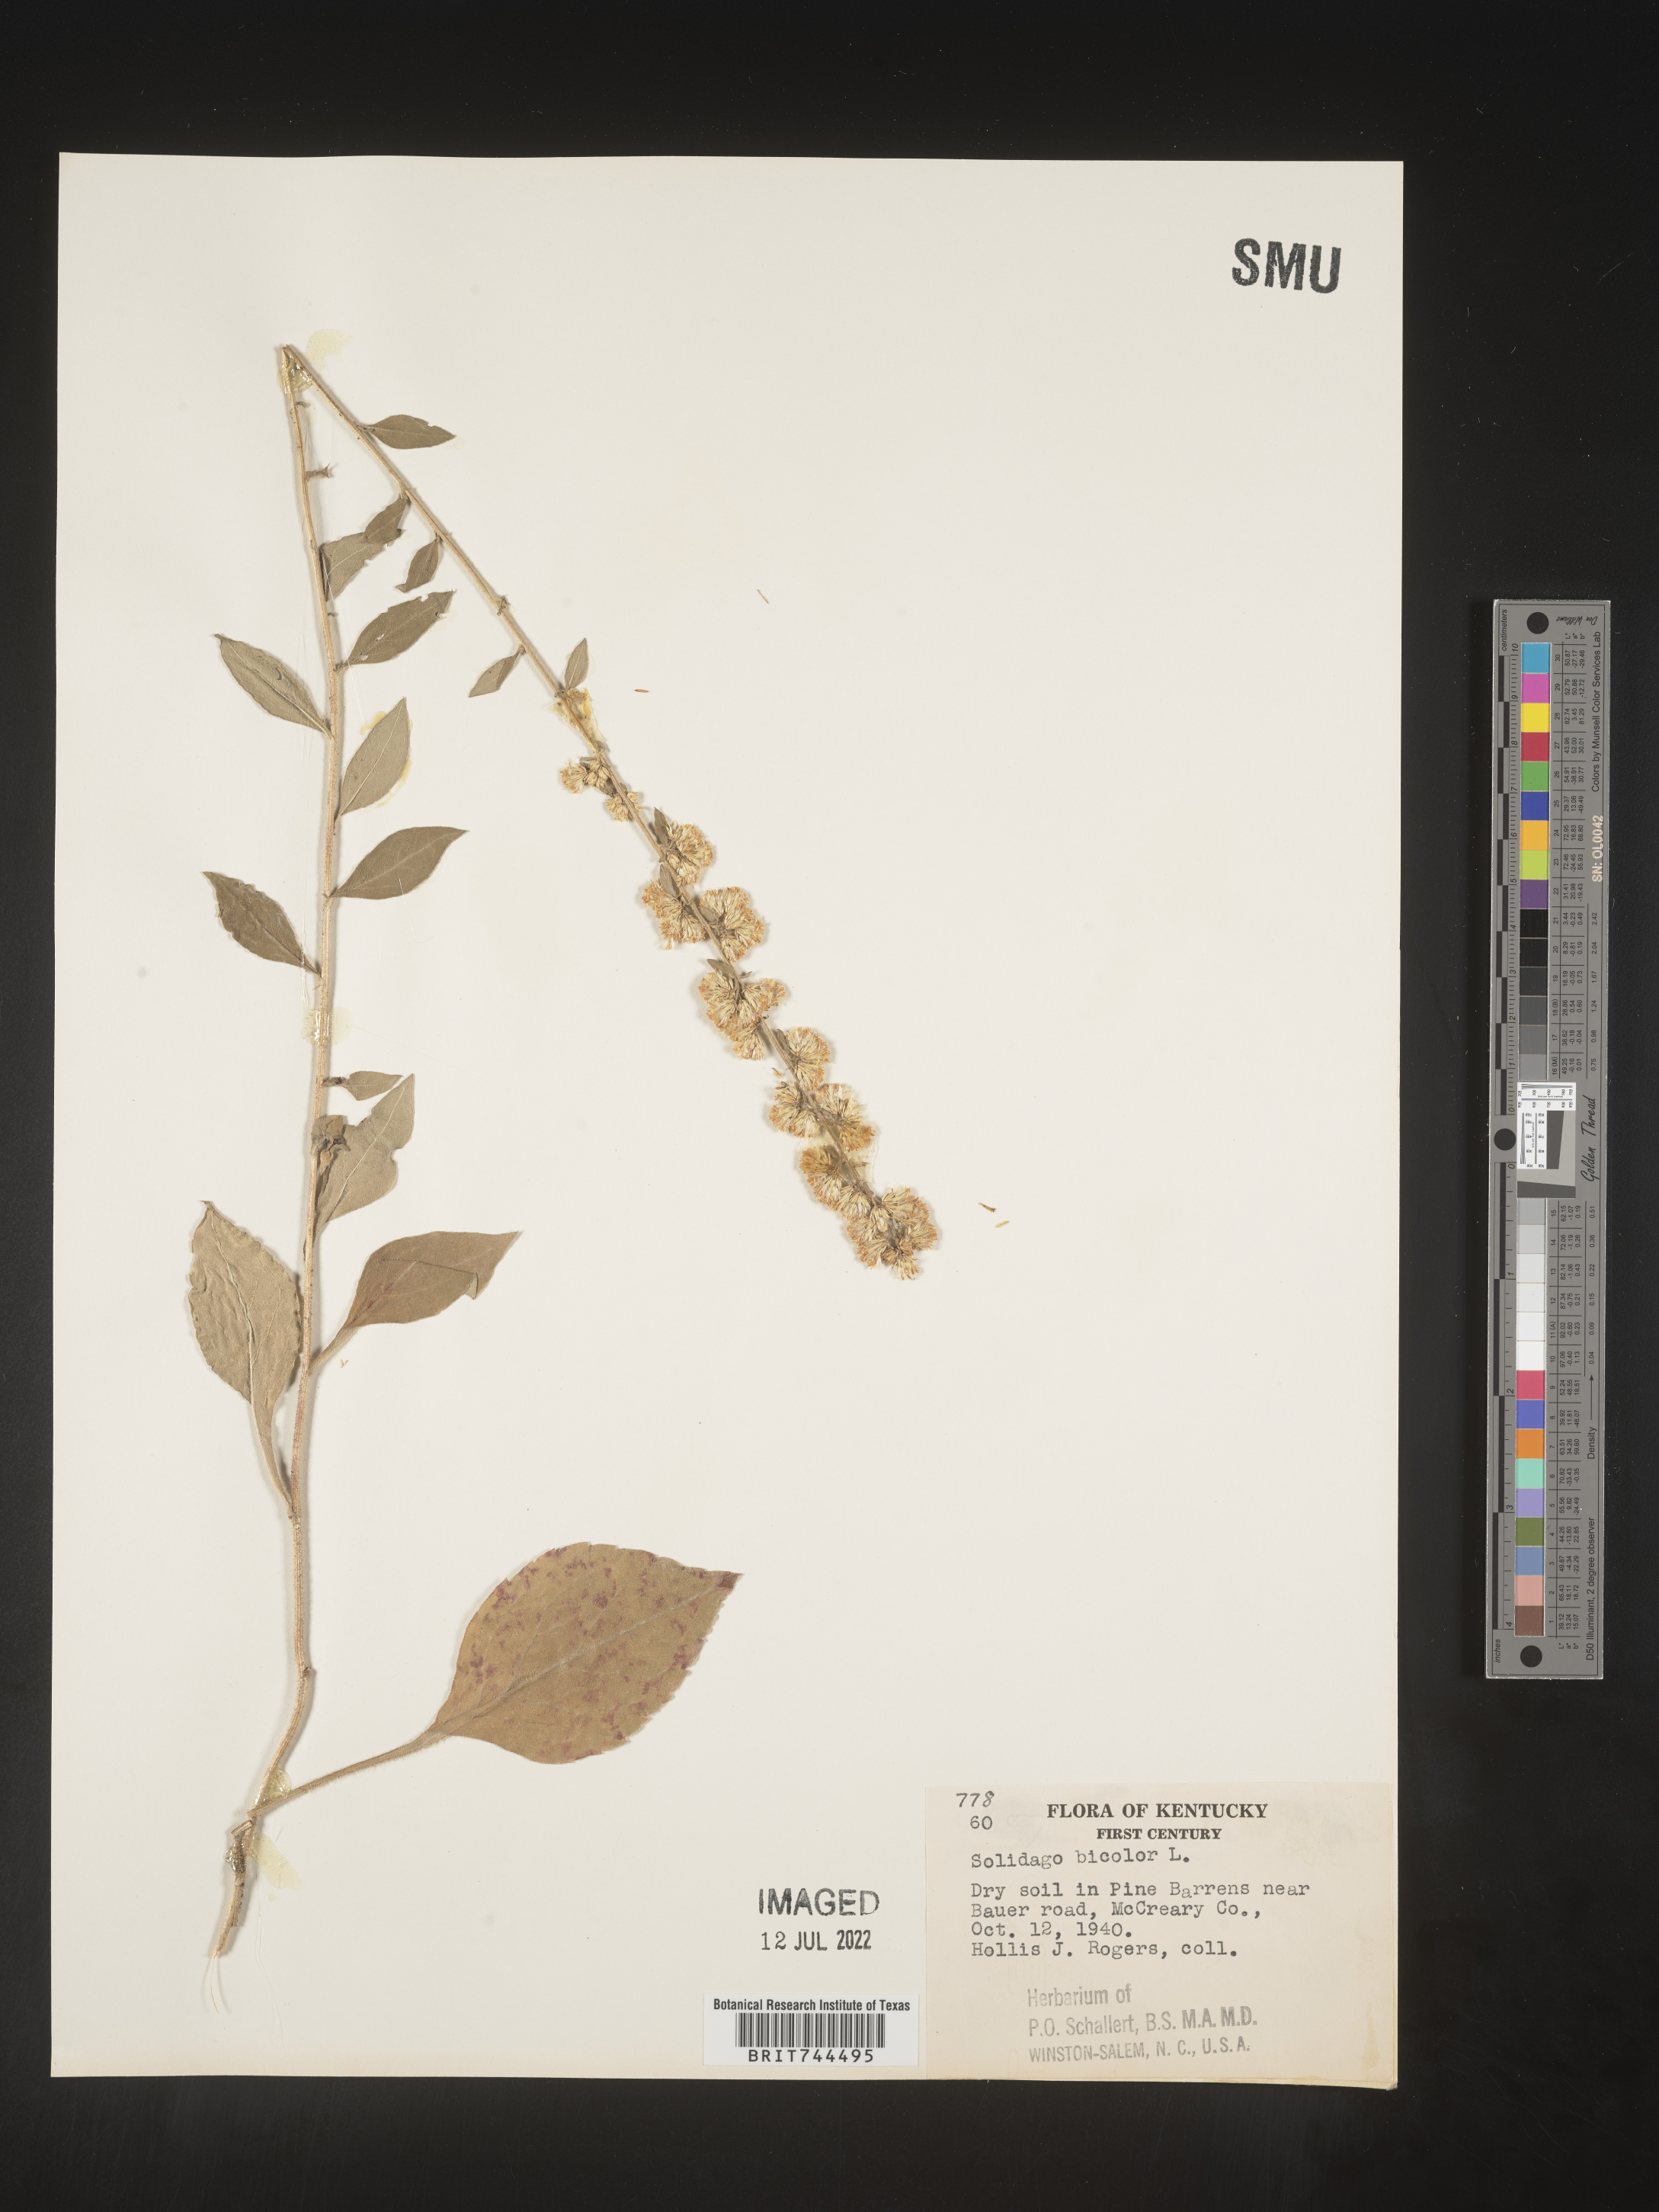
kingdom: Plantae
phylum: Tracheophyta
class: Magnoliopsida
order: Asterales
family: Asteraceae
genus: Solidago
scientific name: Solidago bicolor
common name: Silverrod
